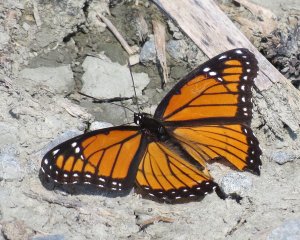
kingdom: Animalia
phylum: Arthropoda
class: Insecta
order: Lepidoptera
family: Nymphalidae
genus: Limenitis
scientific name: Limenitis archippus
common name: Viceroy
